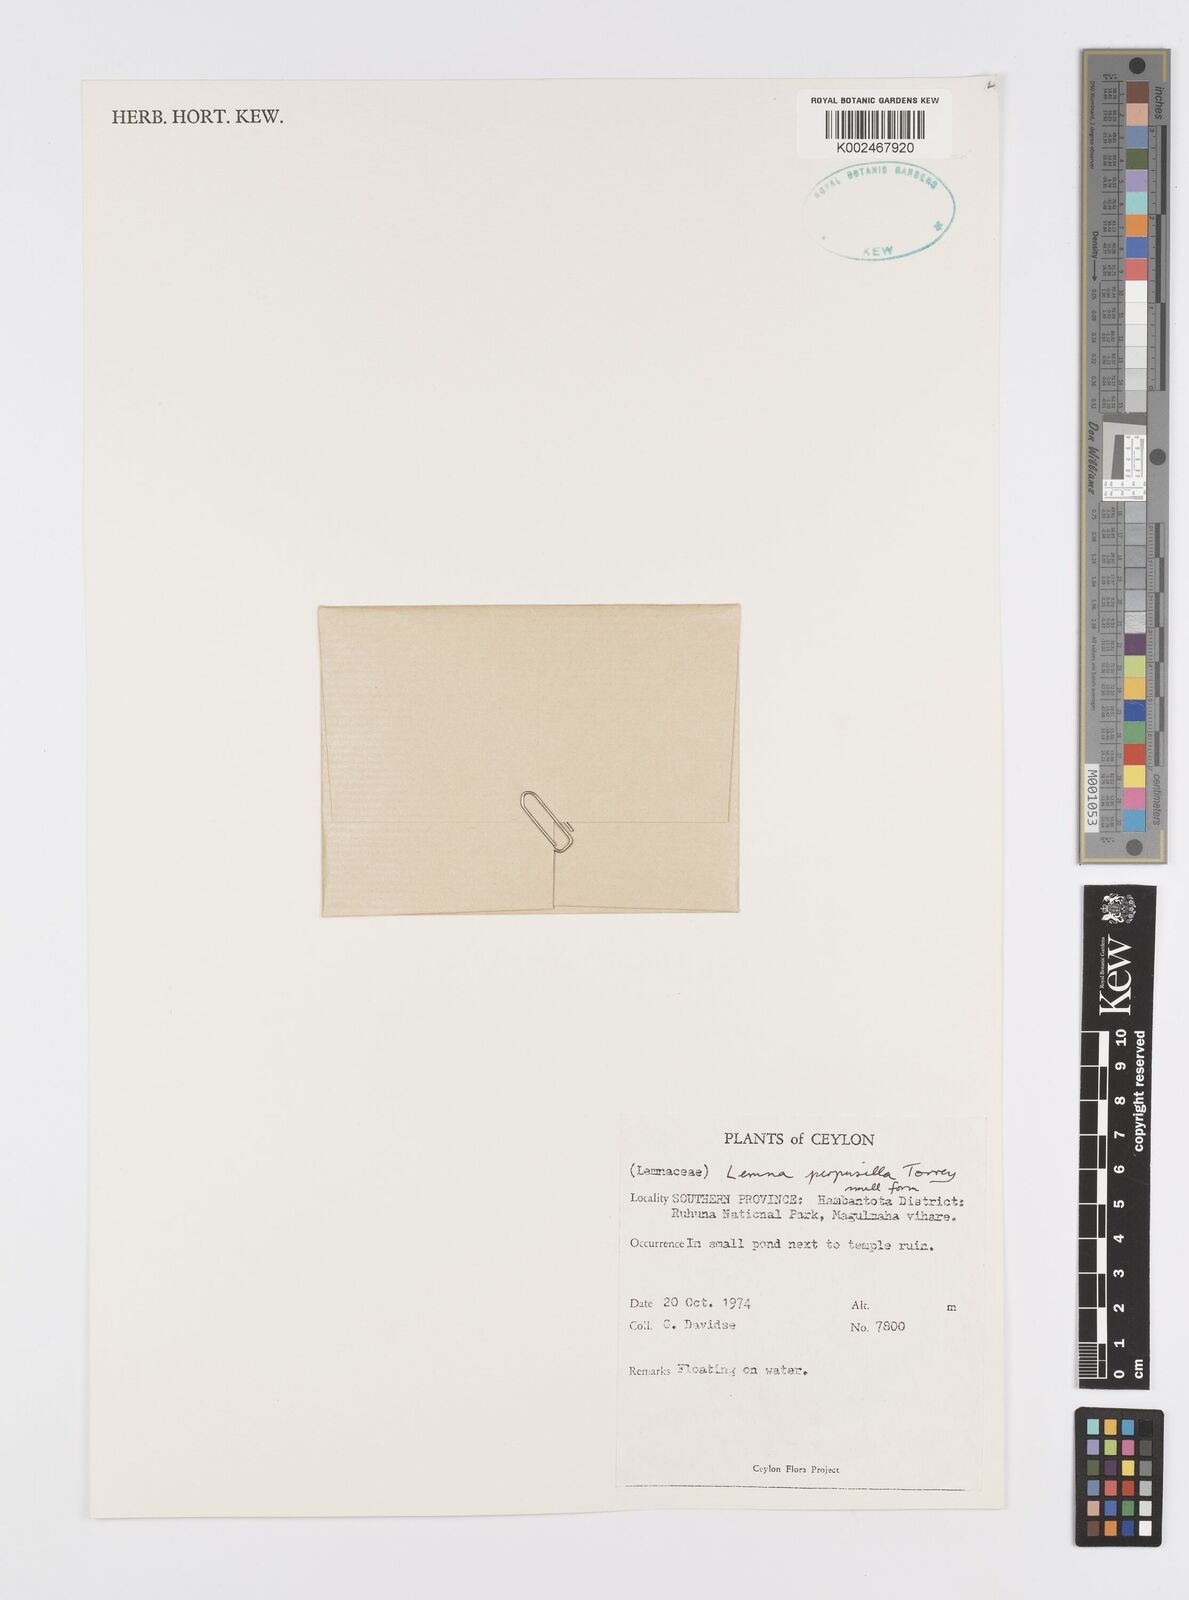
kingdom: Plantae
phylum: Tracheophyta
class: Liliopsida
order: Alismatales
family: Araceae
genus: Lemna
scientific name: Lemna perpusilla
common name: Duckweed
